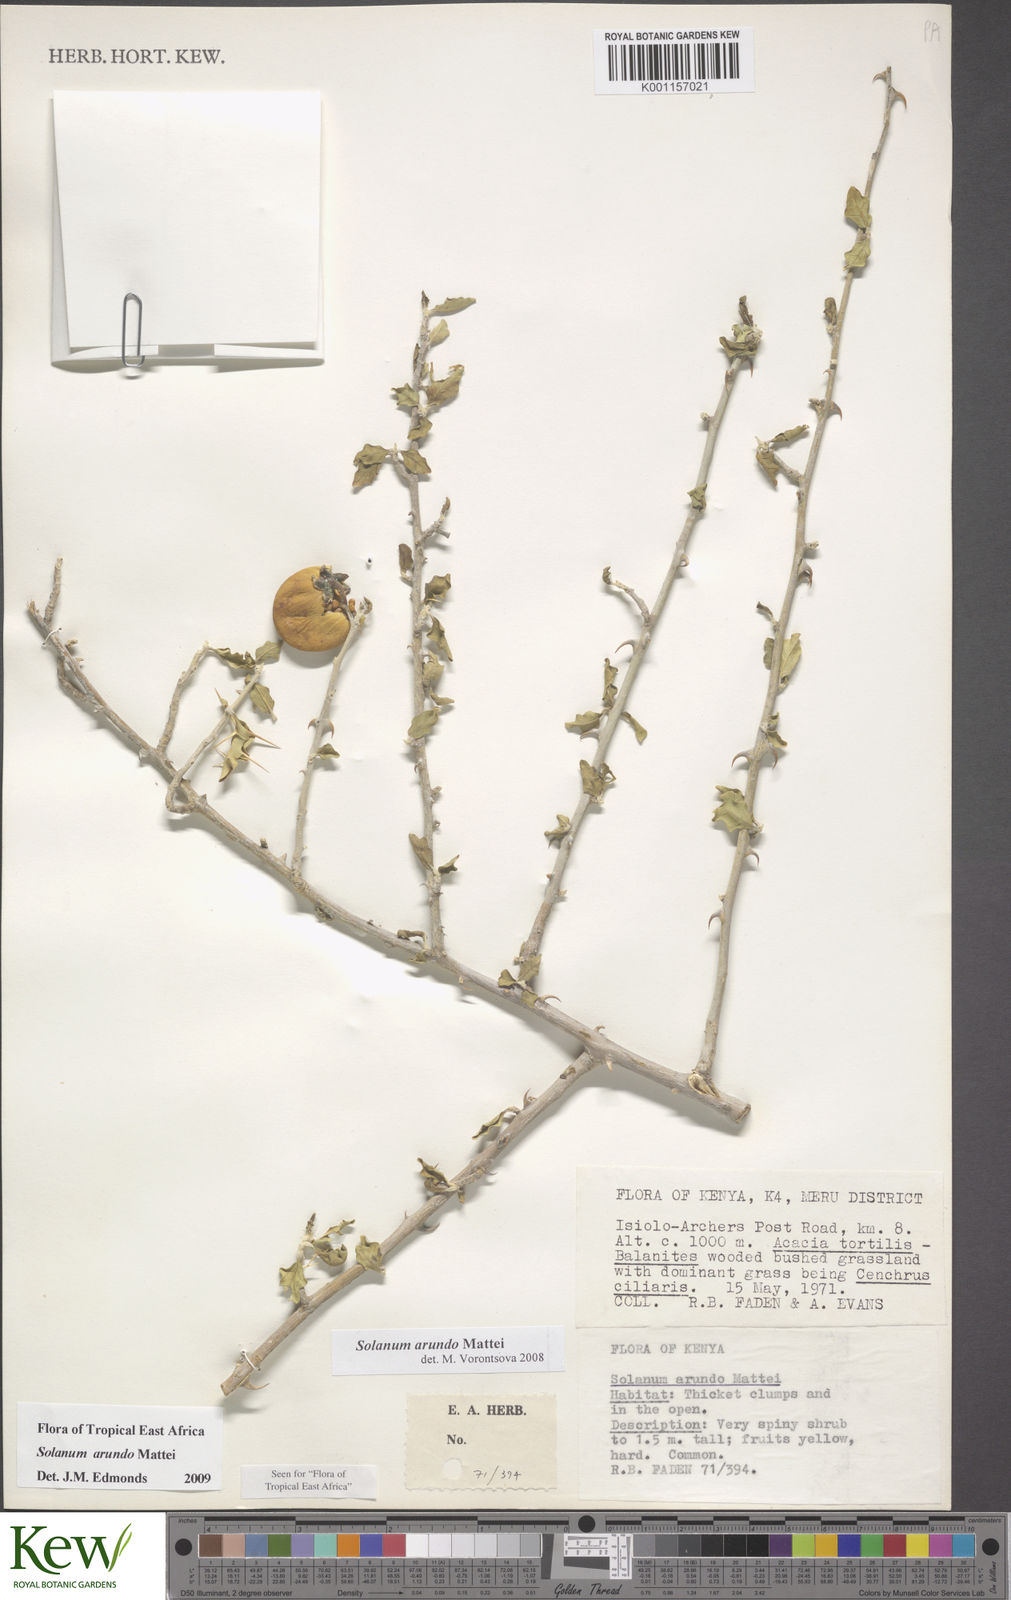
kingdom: Plantae
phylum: Tracheophyta
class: Magnoliopsida
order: Solanales
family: Solanaceae
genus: Solanum
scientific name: Solanum arundo
